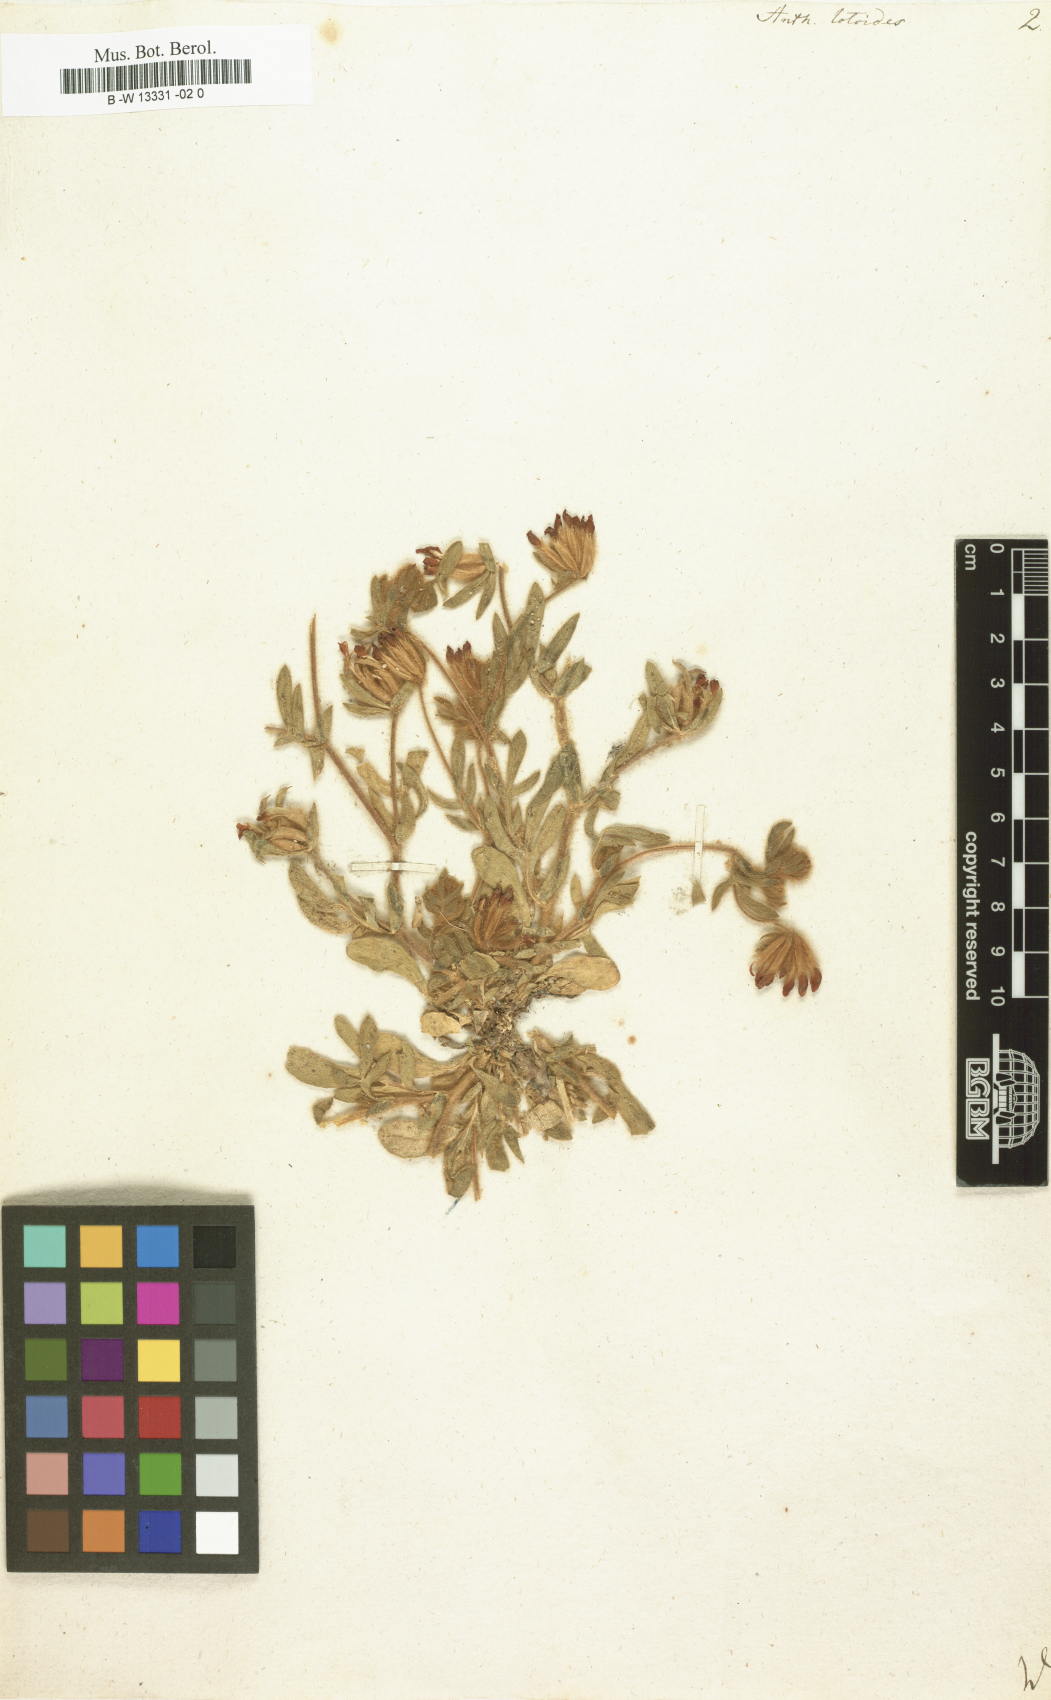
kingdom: Plantae
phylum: Tracheophyta
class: Magnoliopsida
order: Fabales
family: Fabaceae
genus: Anthyllis
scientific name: Anthyllis lotoides
